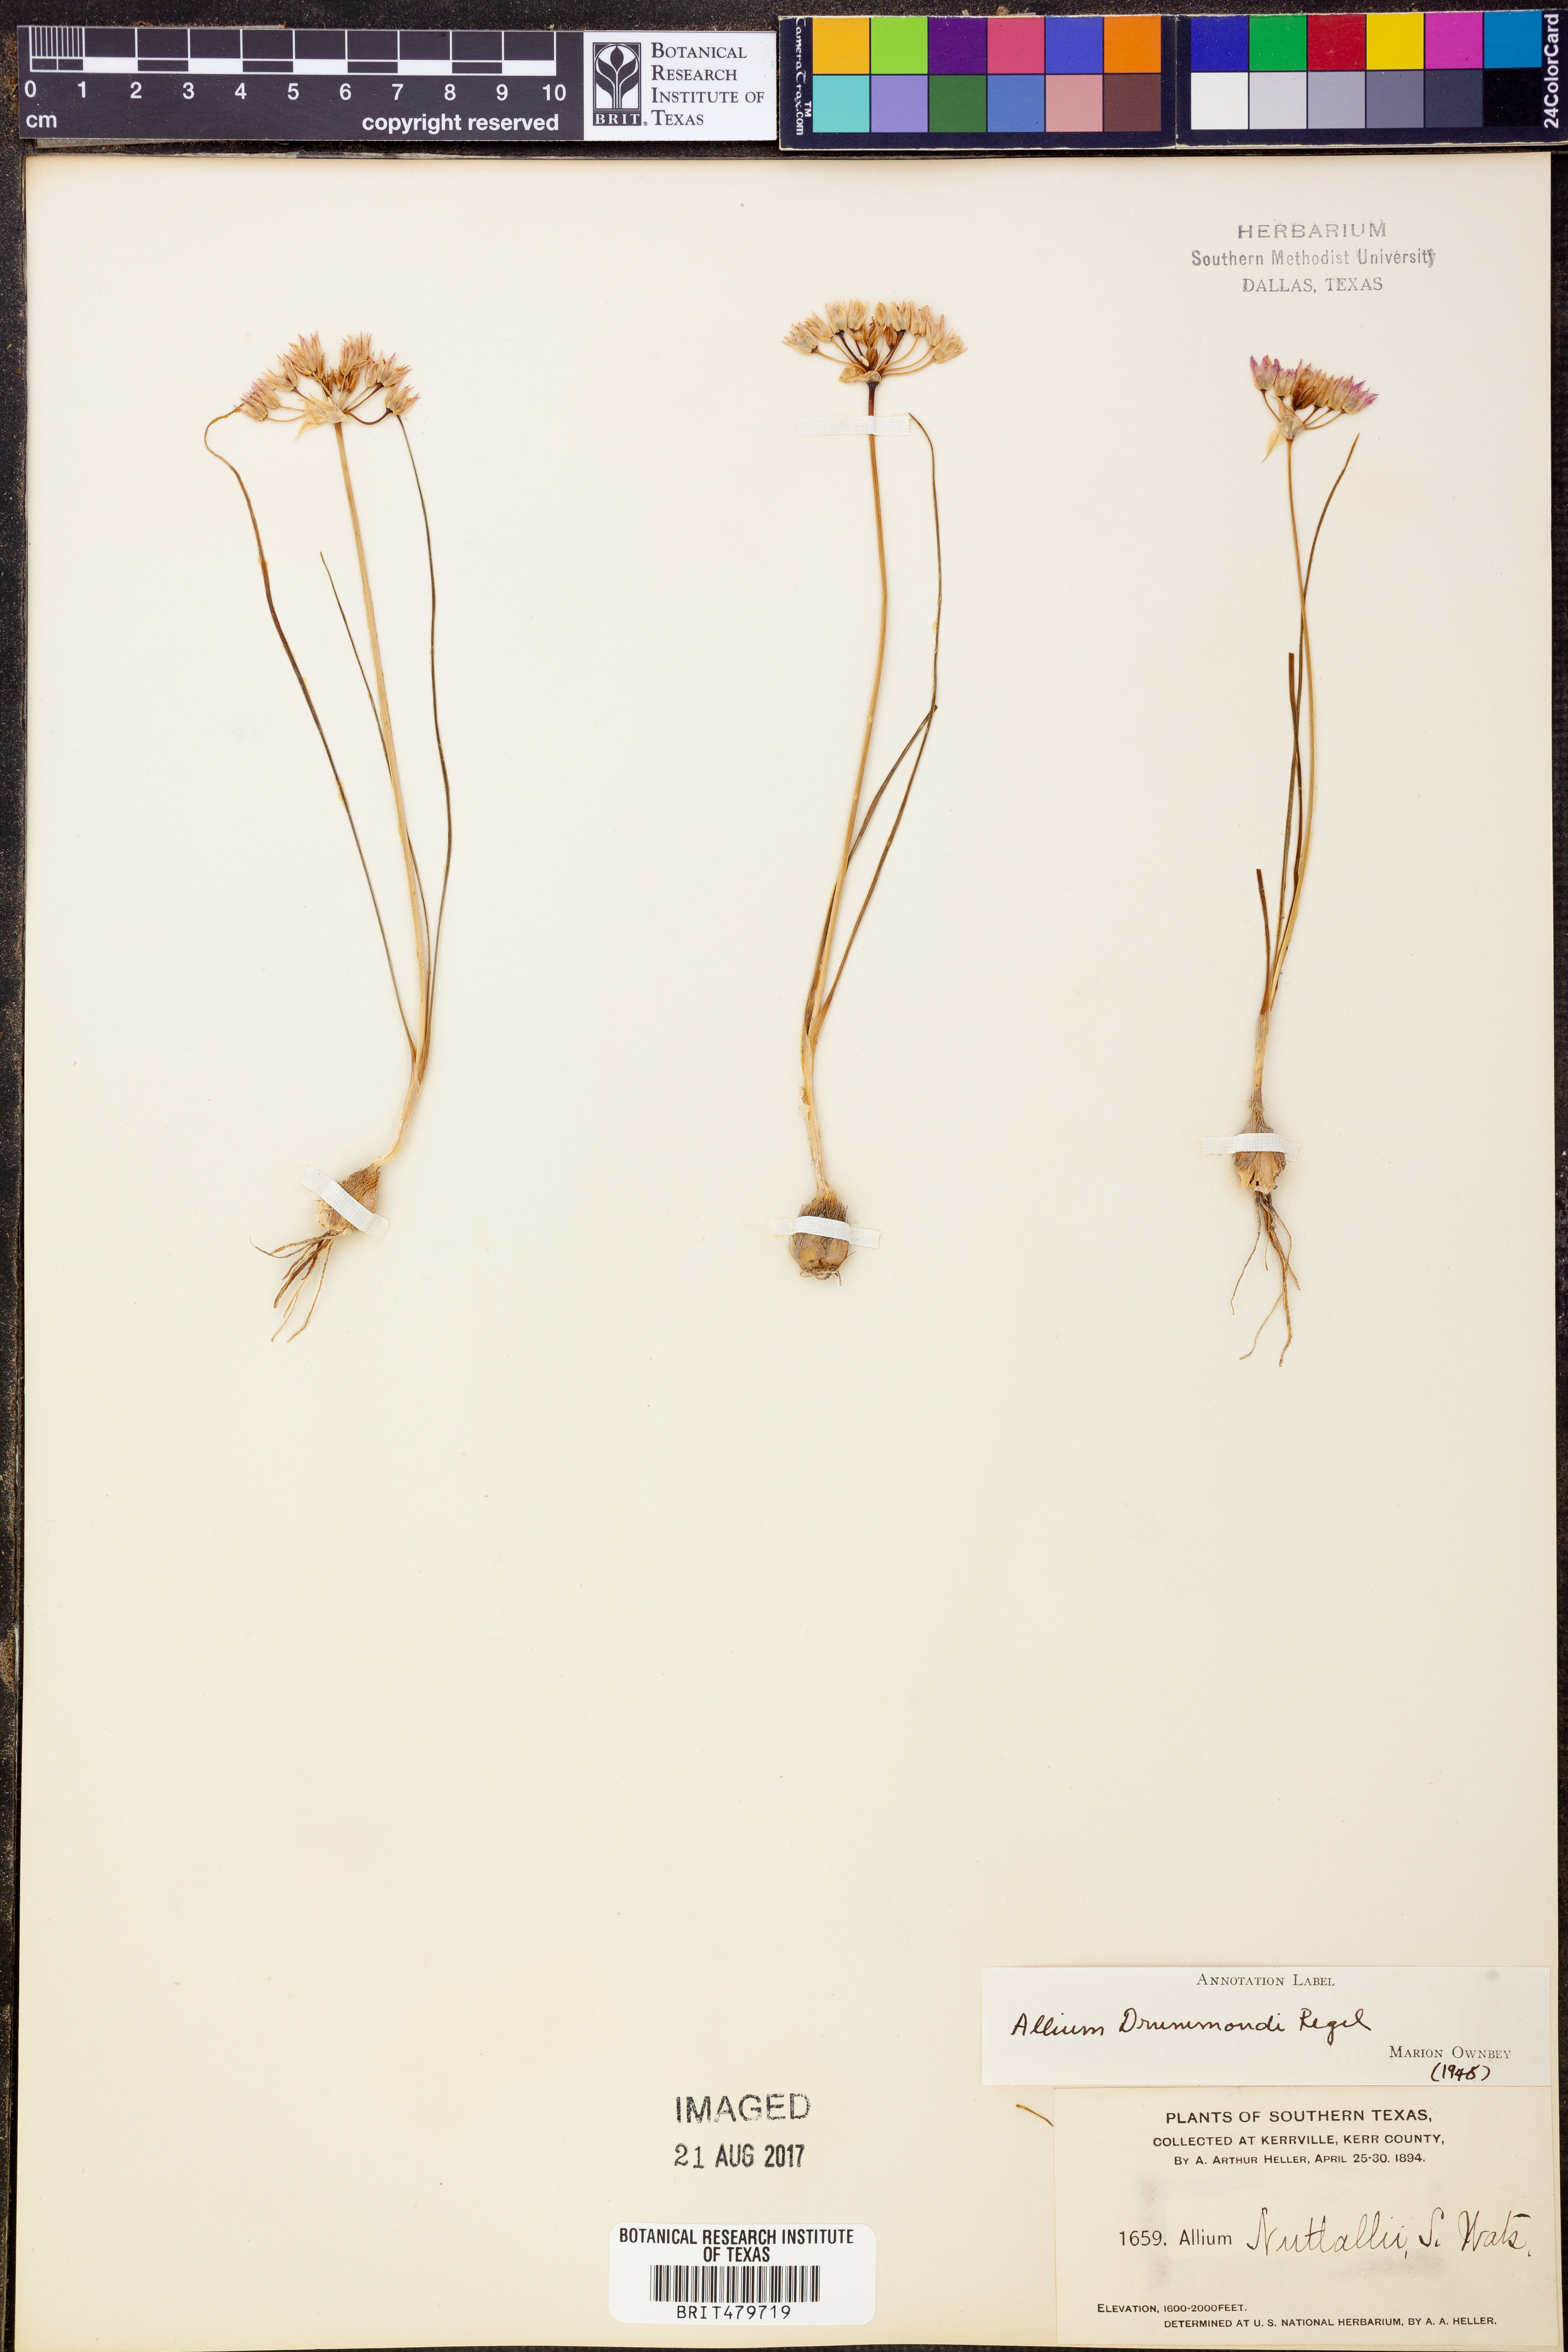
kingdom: Plantae
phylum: Tracheophyta
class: Liliopsida
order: Asparagales
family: Amaryllidaceae
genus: Allium
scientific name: Allium drummondii
